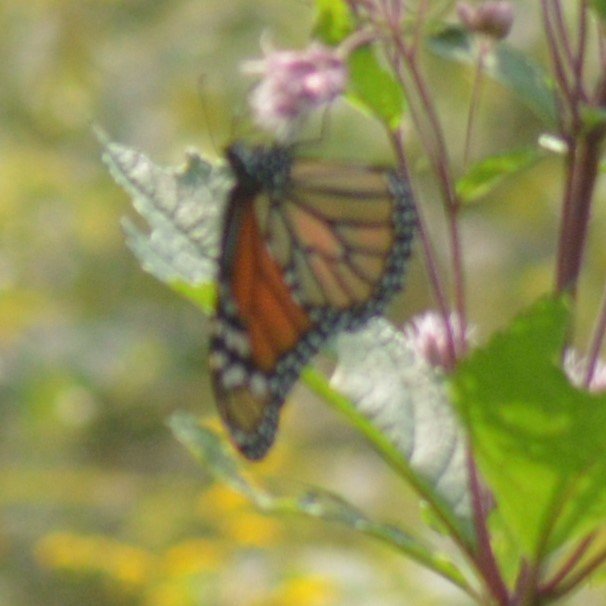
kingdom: Animalia
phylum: Arthropoda
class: Insecta
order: Lepidoptera
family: Nymphalidae
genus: Danaus
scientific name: Danaus plexippus
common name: Monarch
